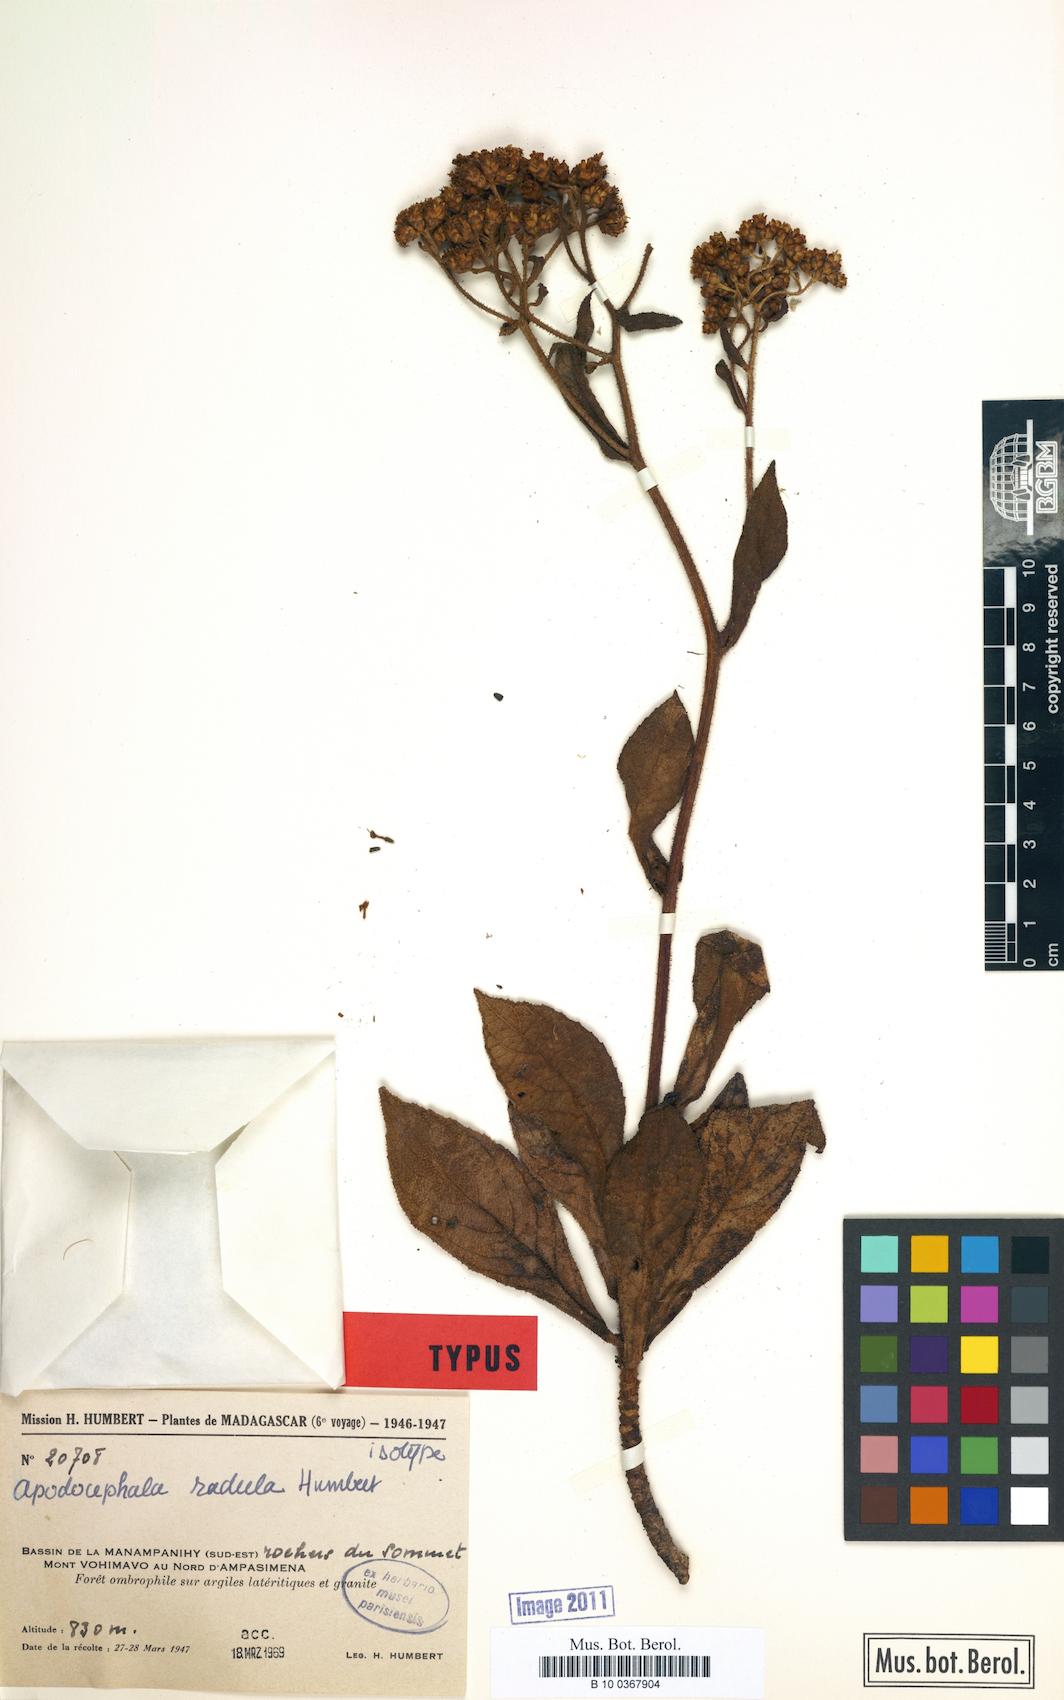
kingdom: Plantae
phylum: Tracheophyta
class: Magnoliopsida
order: Asterales
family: Asteraceae
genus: Apodocephala
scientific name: Apodocephala radula
